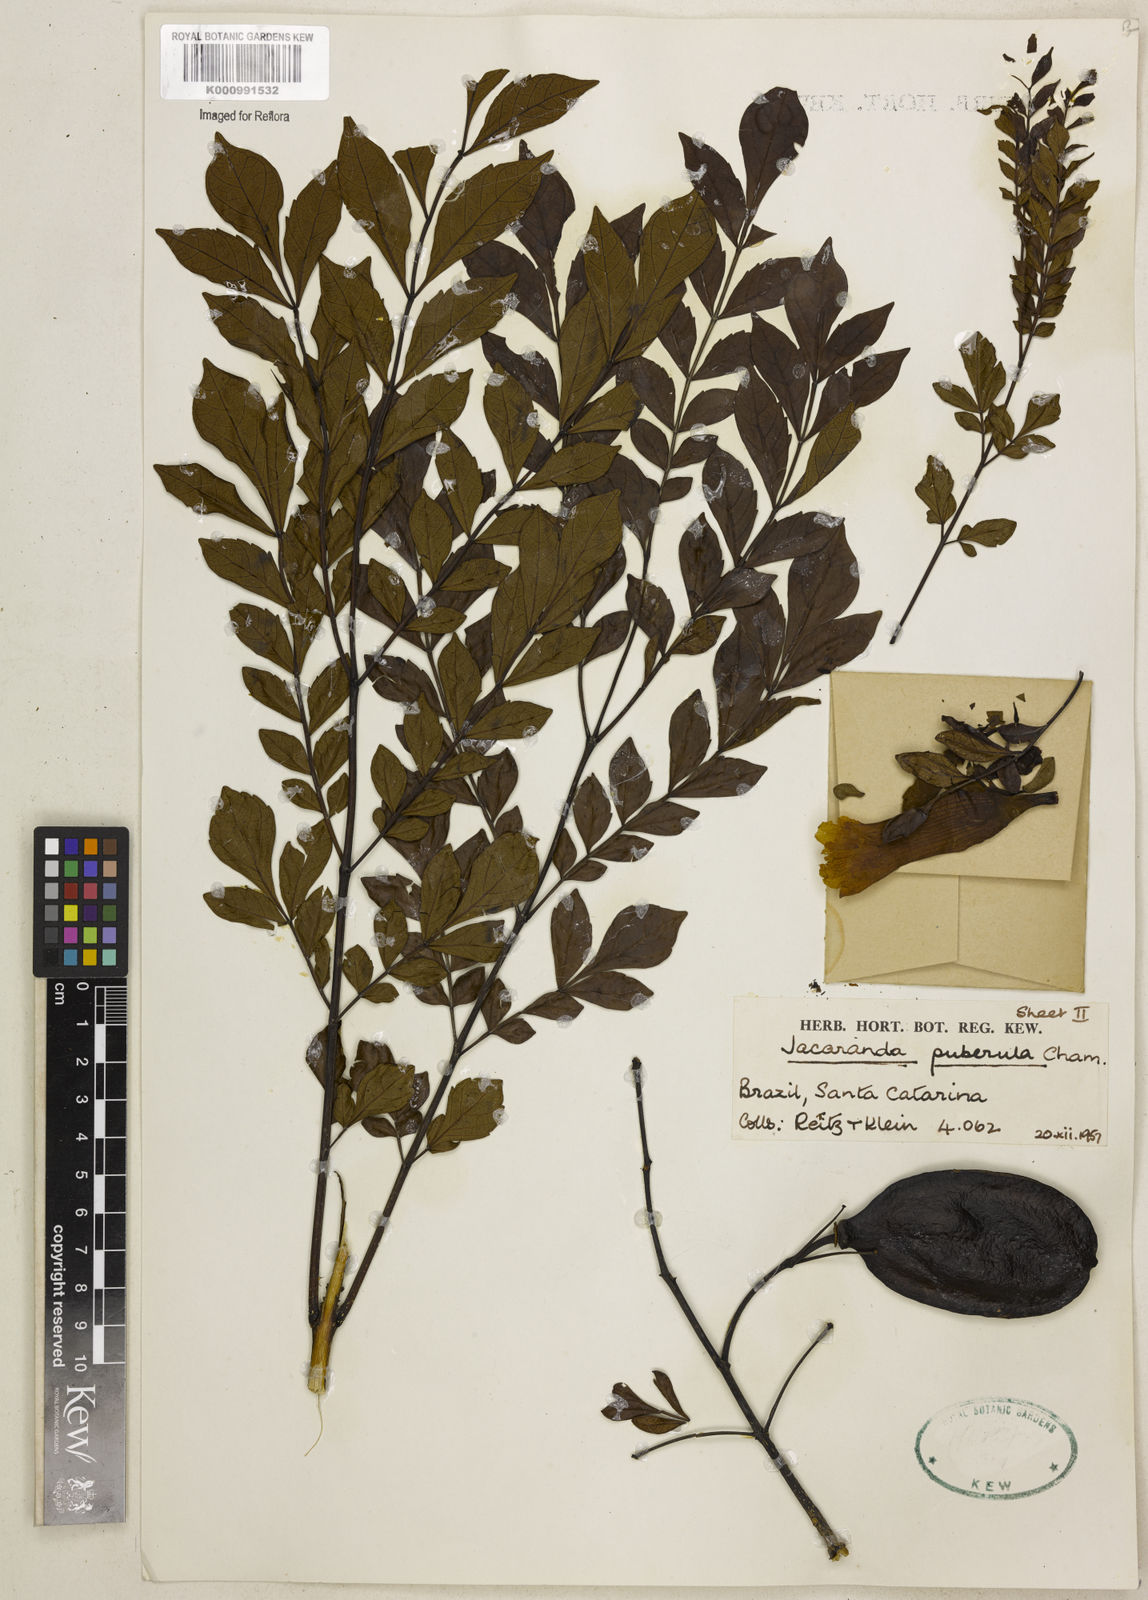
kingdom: Plantae
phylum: Tracheophyta
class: Magnoliopsida
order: Lamiales
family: Bignoniaceae
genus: Jacaranda
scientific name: Jacaranda puberula
